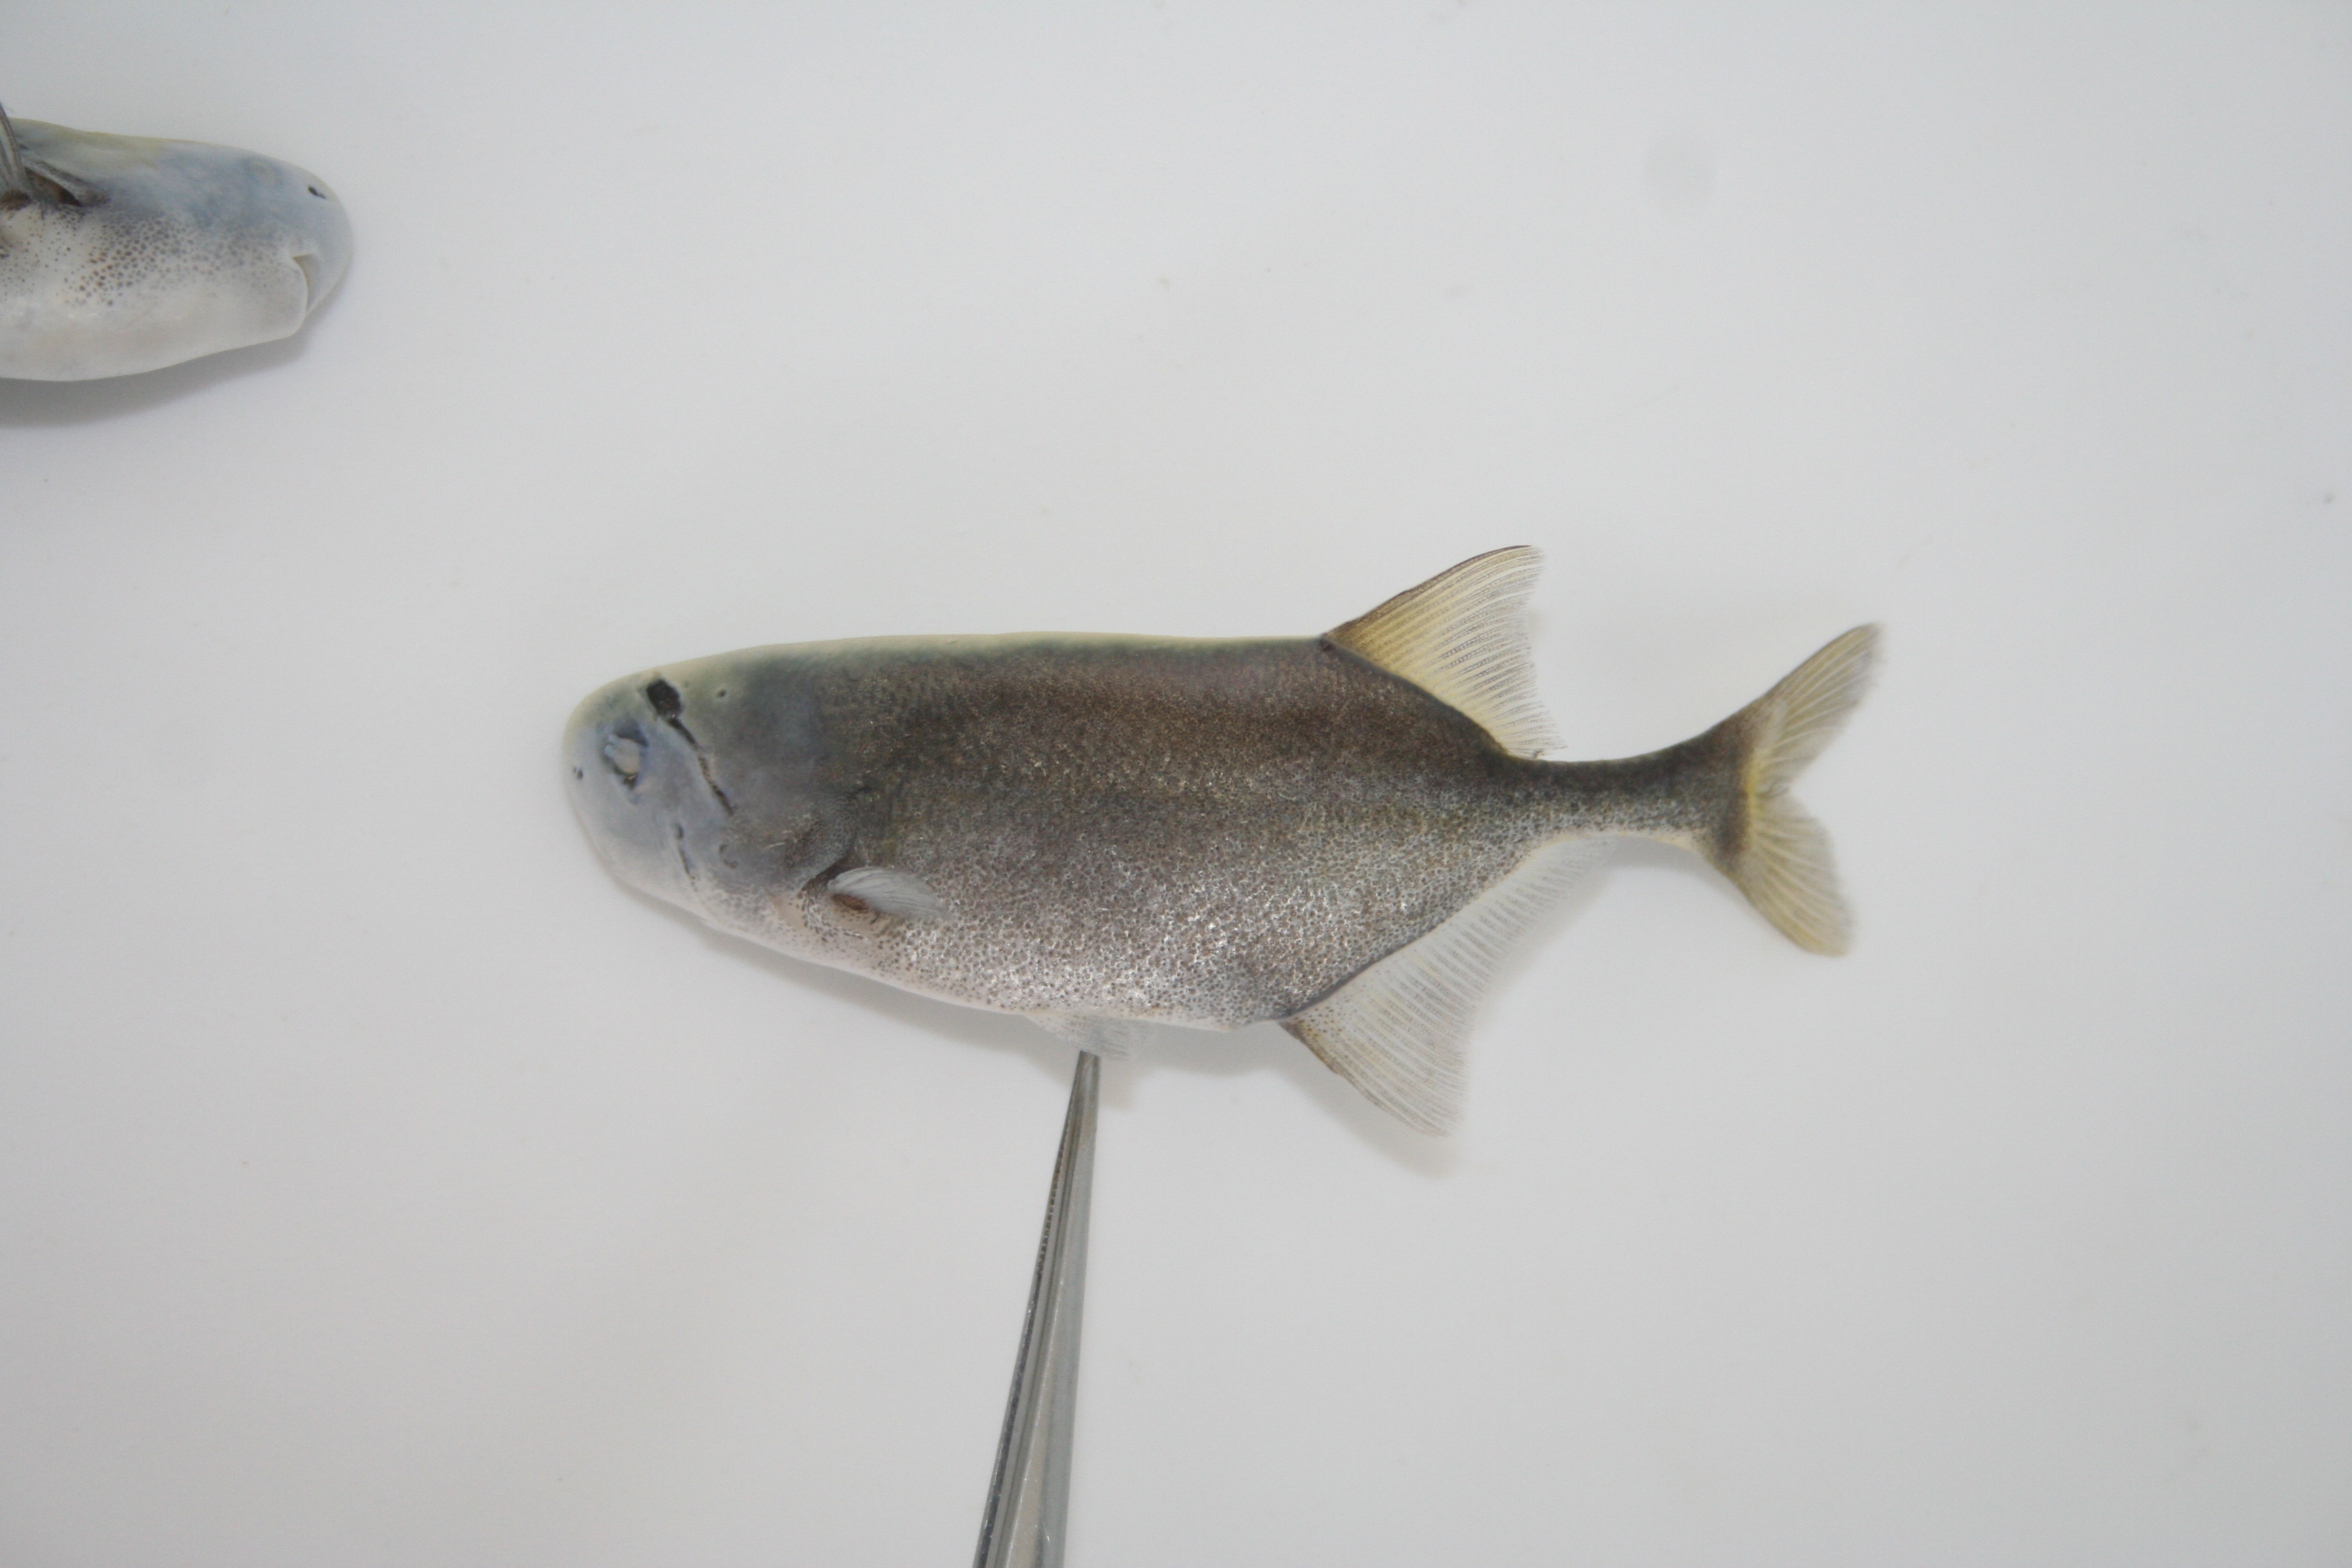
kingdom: Animalia
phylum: Chordata
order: Osteoglossiformes
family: Mormyridae
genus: Petrocephalus
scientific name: Petrocephalus
